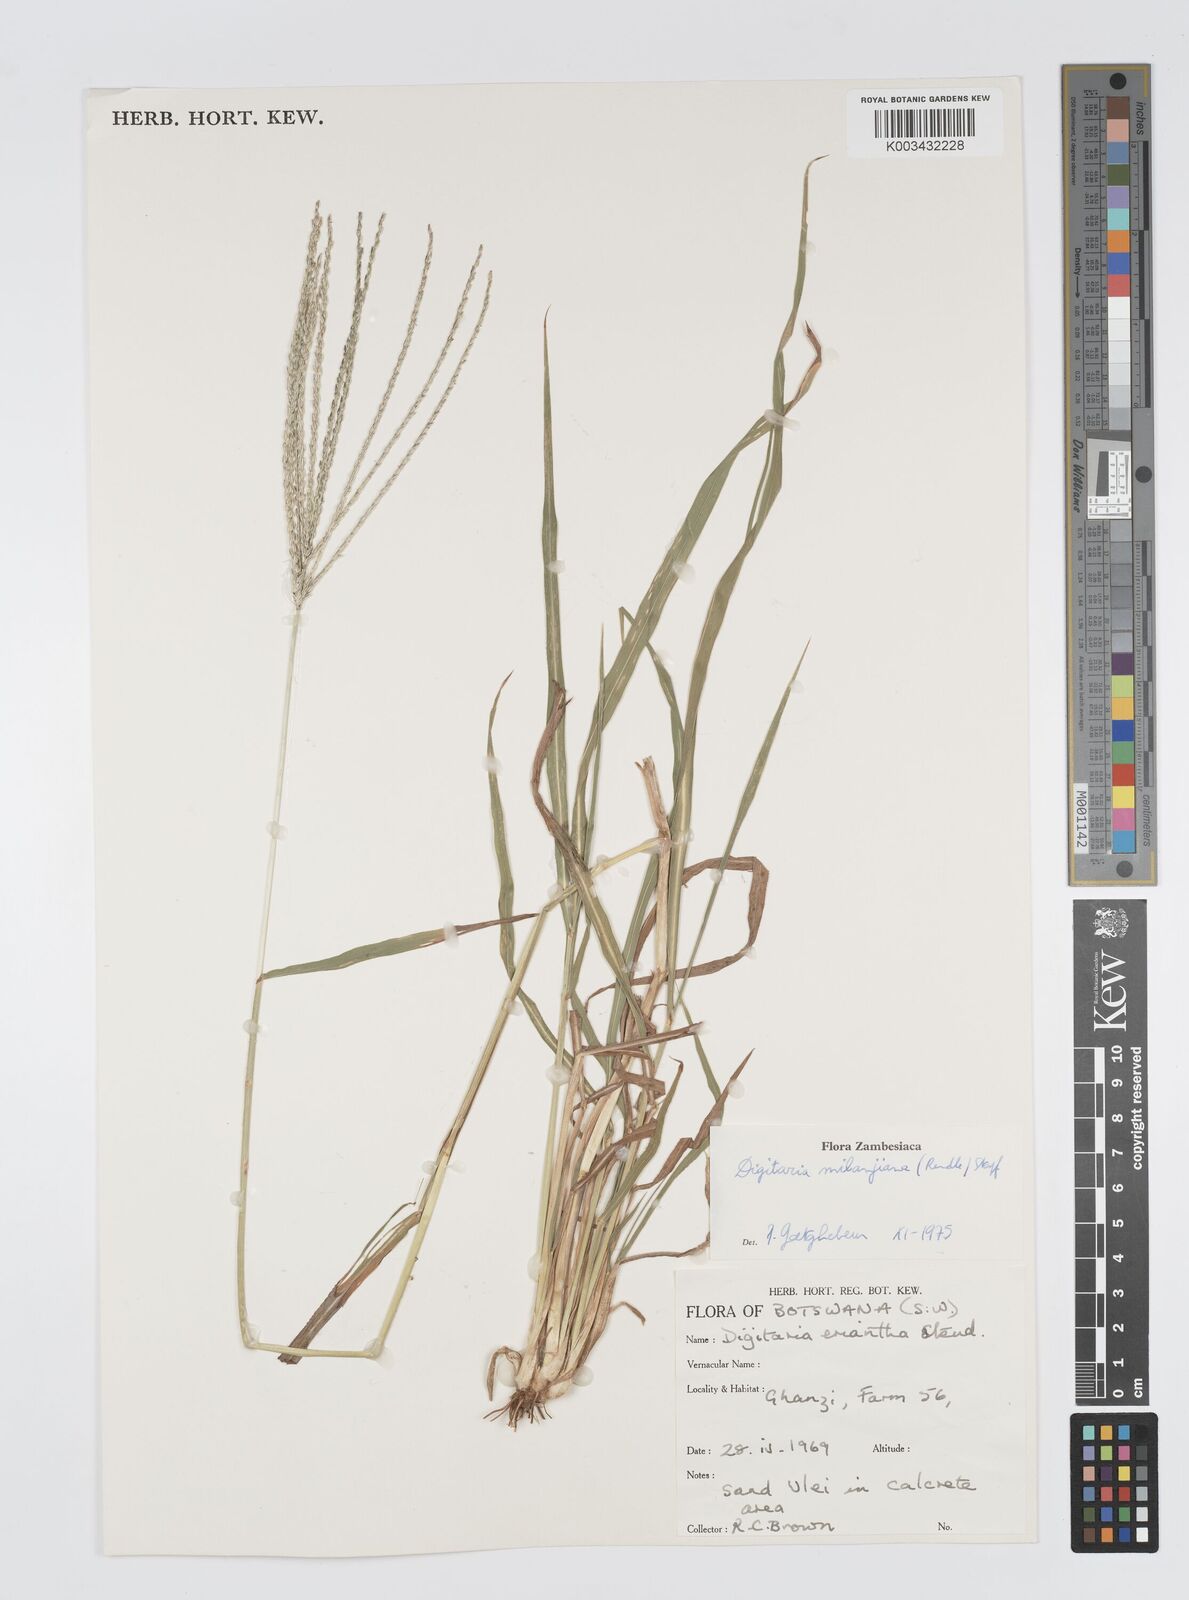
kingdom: Plantae
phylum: Tracheophyta
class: Liliopsida
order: Poales
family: Poaceae
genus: Digitaria
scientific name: Digitaria milanjiana
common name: Madagascar crabgrass
